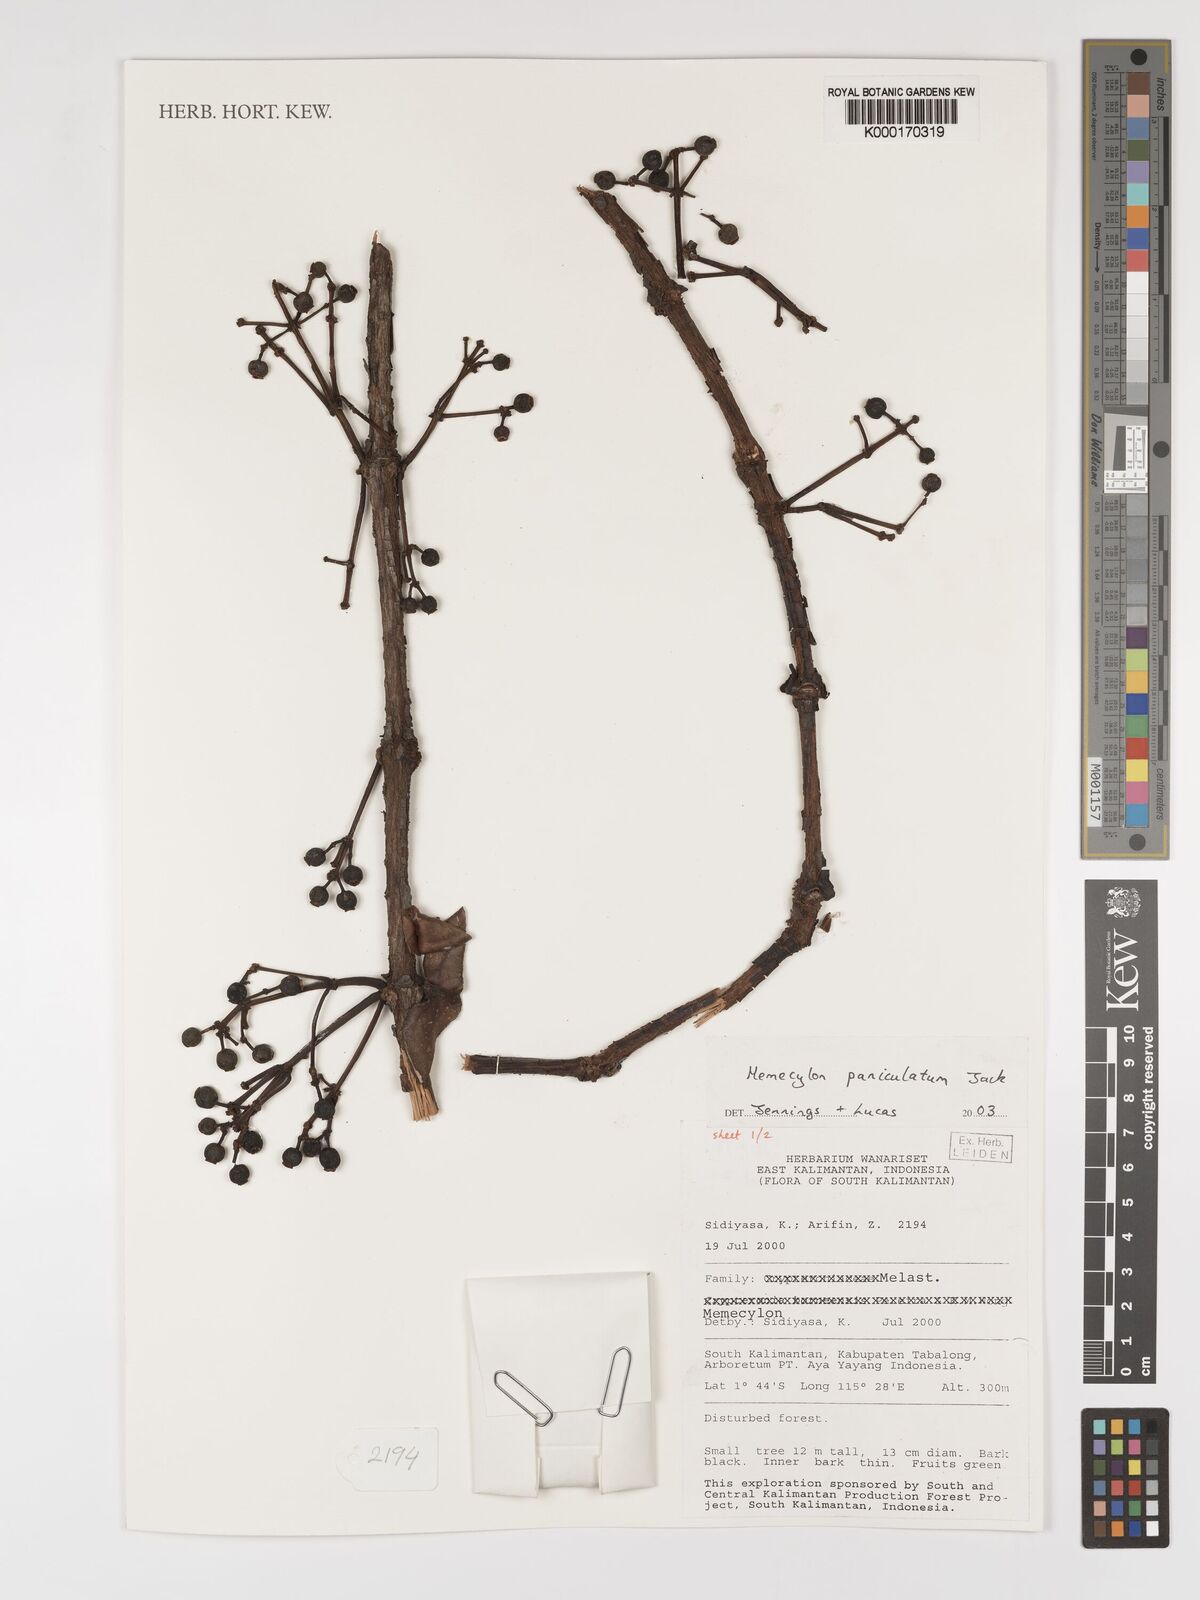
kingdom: Plantae
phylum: Tracheophyta
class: Magnoliopsida
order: Myrtales
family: Melastomataceae
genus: Memecylon
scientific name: Memecylon paniculatum
